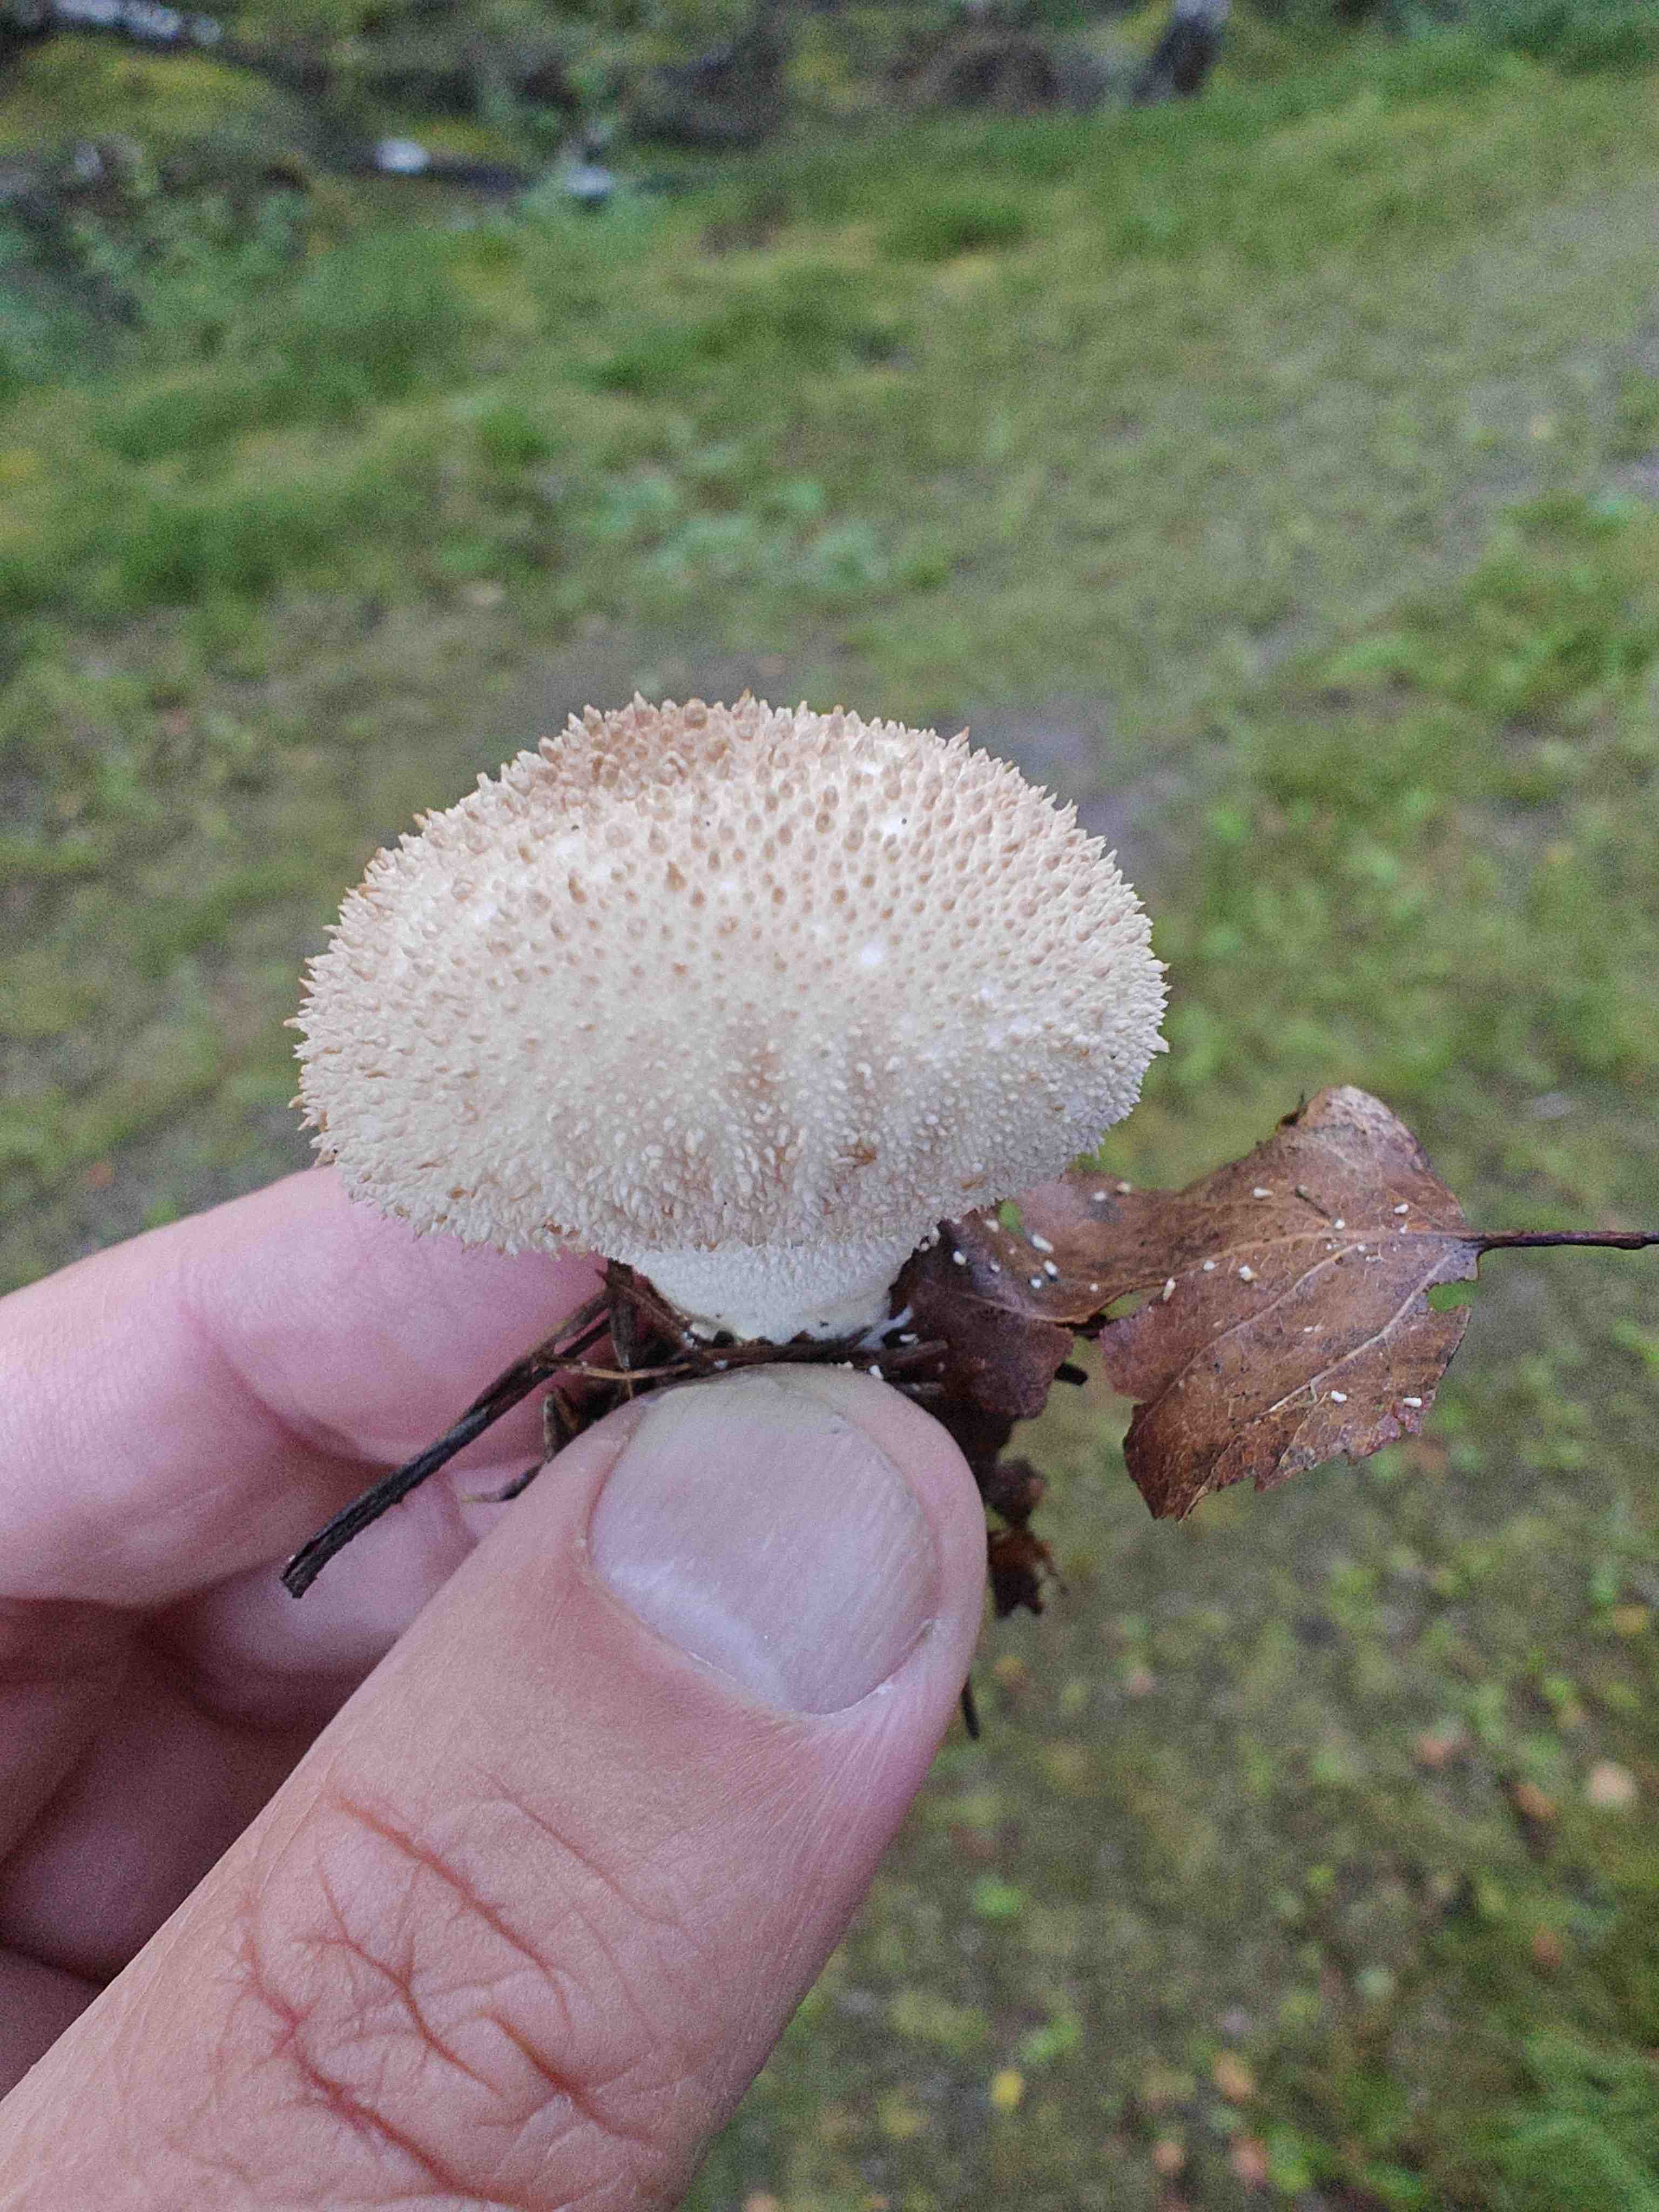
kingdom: Fungi
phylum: Basidiomycota
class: Agaricomycetes
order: Agaricales
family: Lycoperdaceae
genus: Lycoperdon
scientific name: Lycoperdon perlatum
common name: krystal-støvbold
